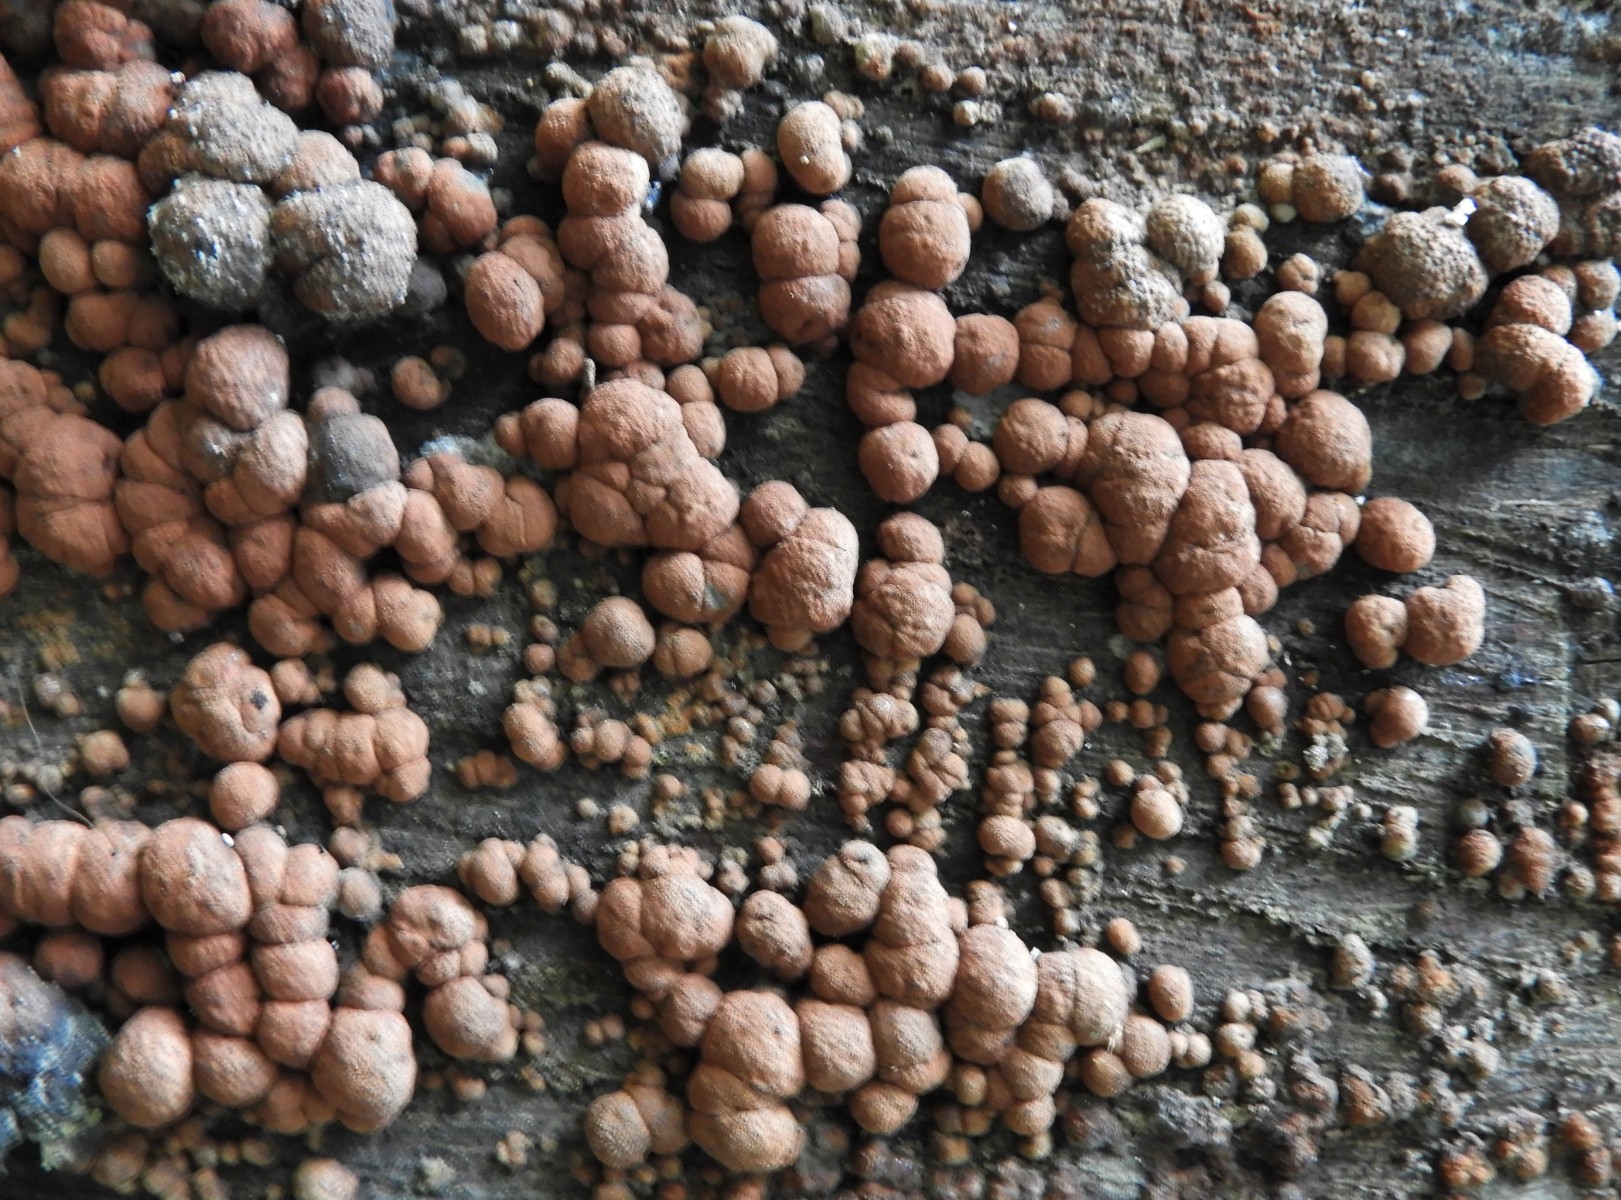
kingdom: Fungi
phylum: Ascomycota
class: Sordariomycetes
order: Xylariales
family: Hypoxylaceae
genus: Hypoxylon
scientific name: Hypoxylon fragiforme
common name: kuljordbær
